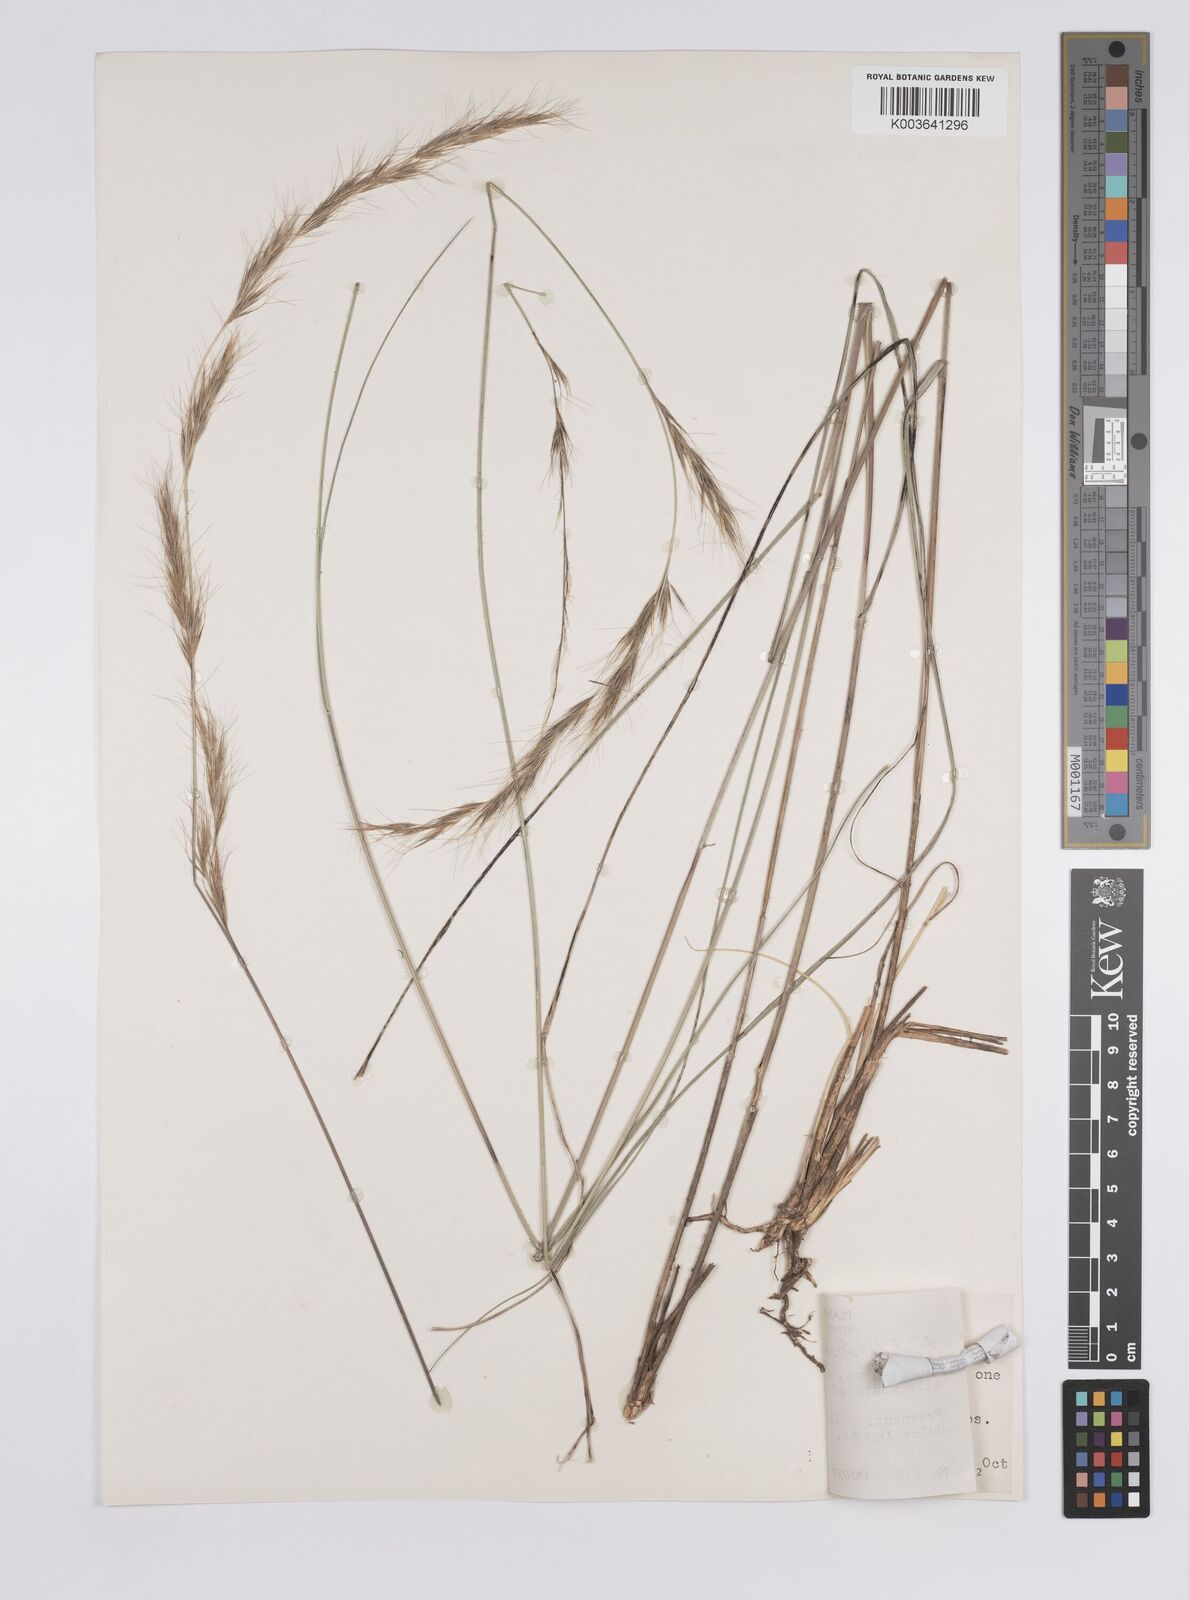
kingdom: Plantae
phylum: Tracheophyta
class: Liliopsida
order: Poales
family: Poaceae
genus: Aristida
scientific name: Aristida scribneriana
